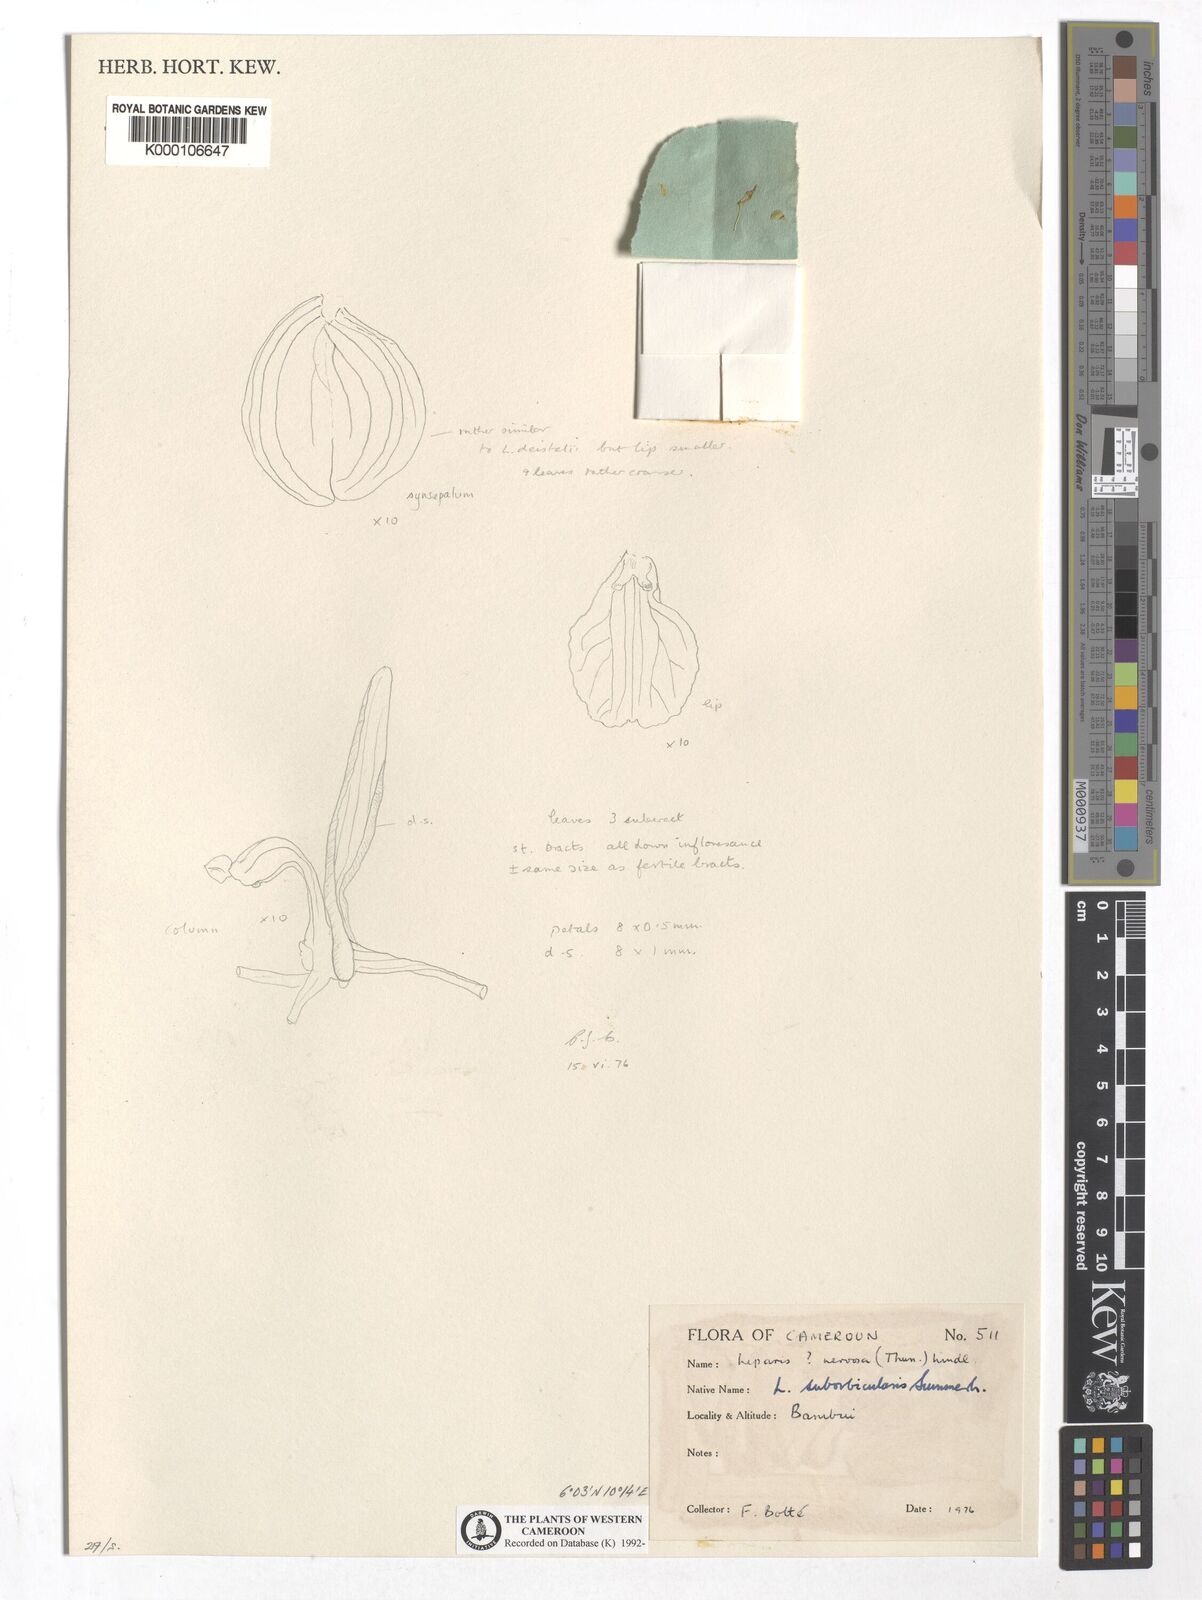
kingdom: Plantae
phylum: Tracheophyta
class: Liliopsida
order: Asparagales
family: Orchidaceae
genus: Liparis
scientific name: Liparis suborbicularis
